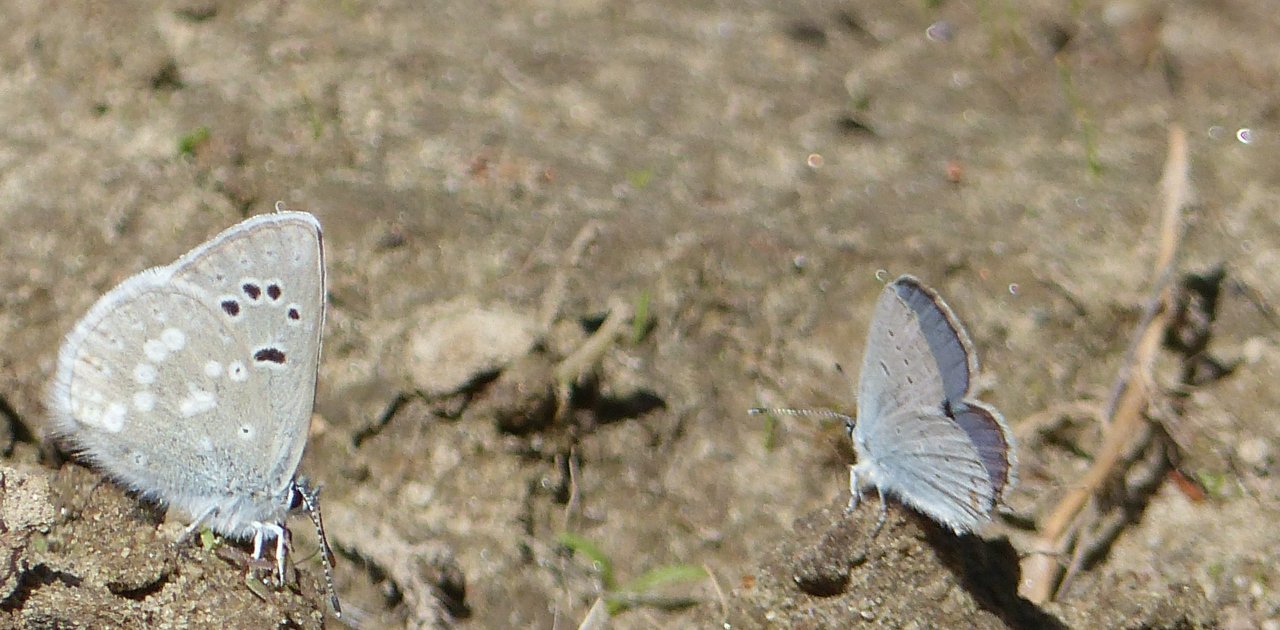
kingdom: Animalia
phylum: Arthropoda
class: Insecta
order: Lepidoptera
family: Lycaenidae
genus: Elkalyce
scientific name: Elkalyce amyntula
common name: Western Tailed-Blue
